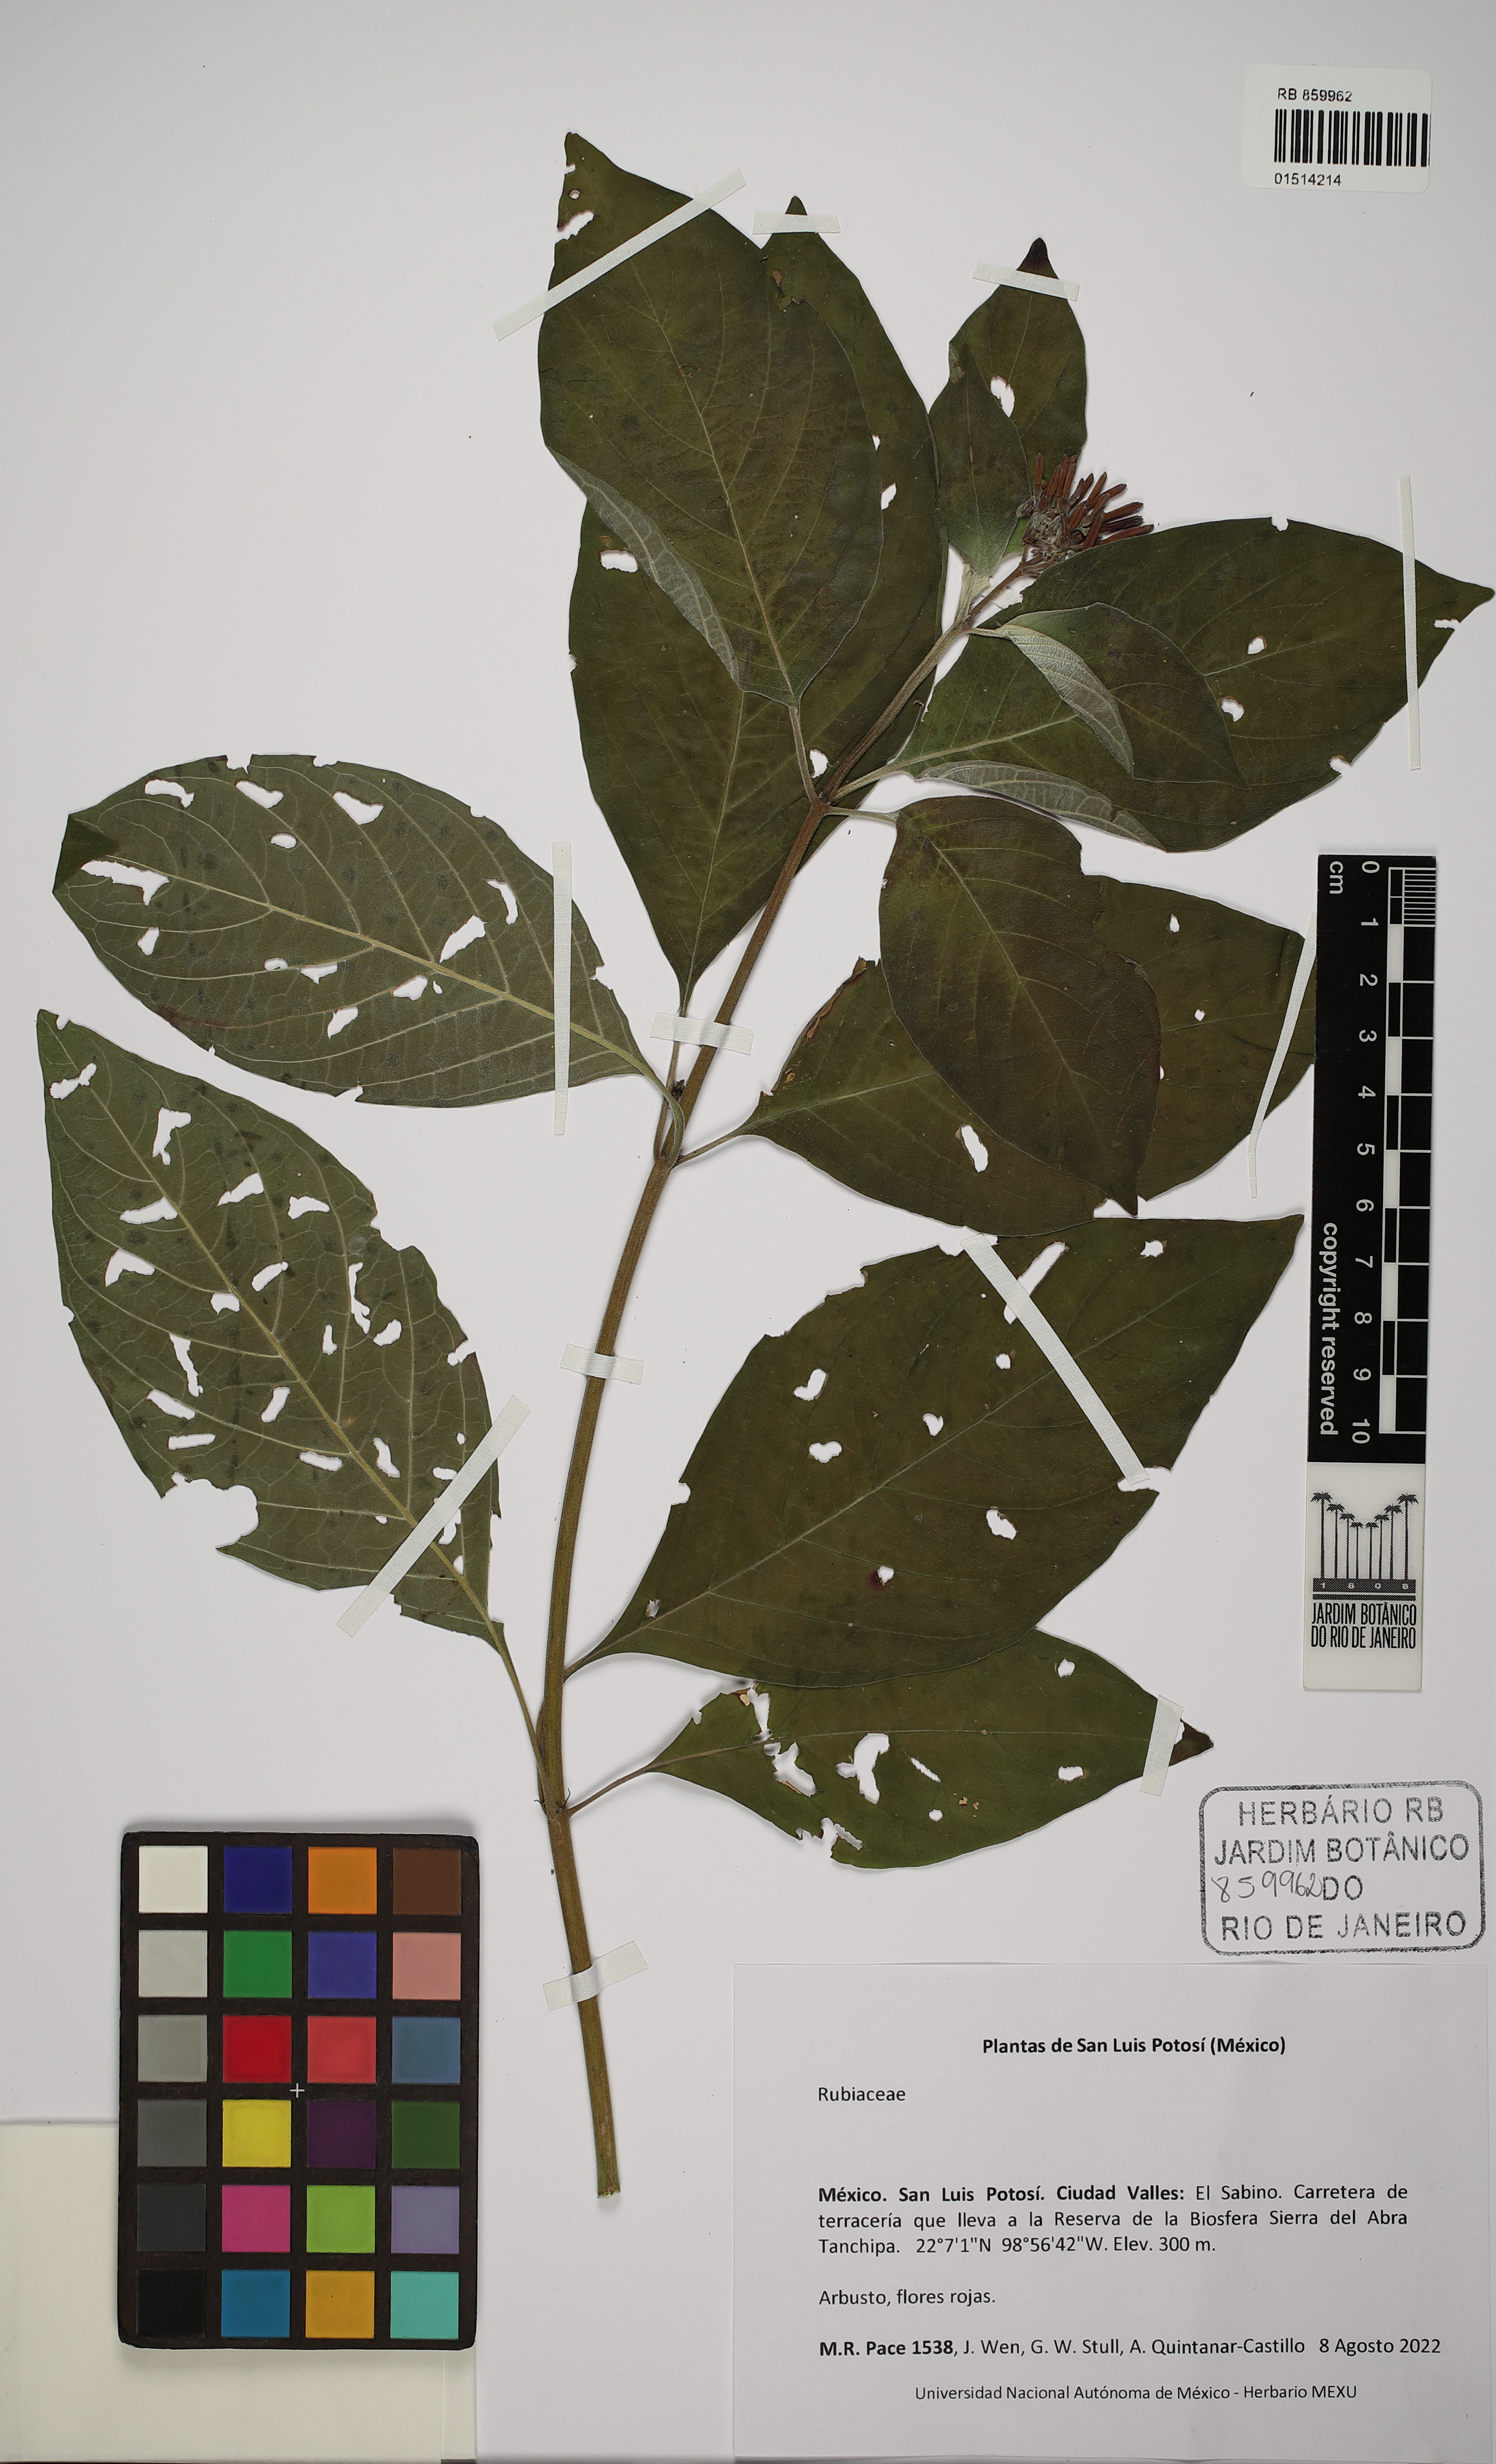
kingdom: Plantae
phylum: Tracheophyta
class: Magnoliopsida
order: Gentianales
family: Rubiaceae
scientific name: Rubiaceae
